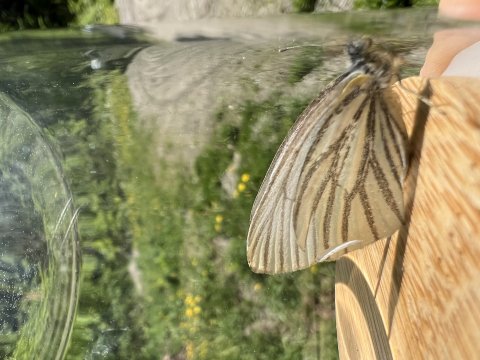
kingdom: Animalia
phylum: Arthropoda
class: Insecta
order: Lepidoptera
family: Pieridae
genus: Pieris
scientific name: Pieris oleracea
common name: Mustard White
